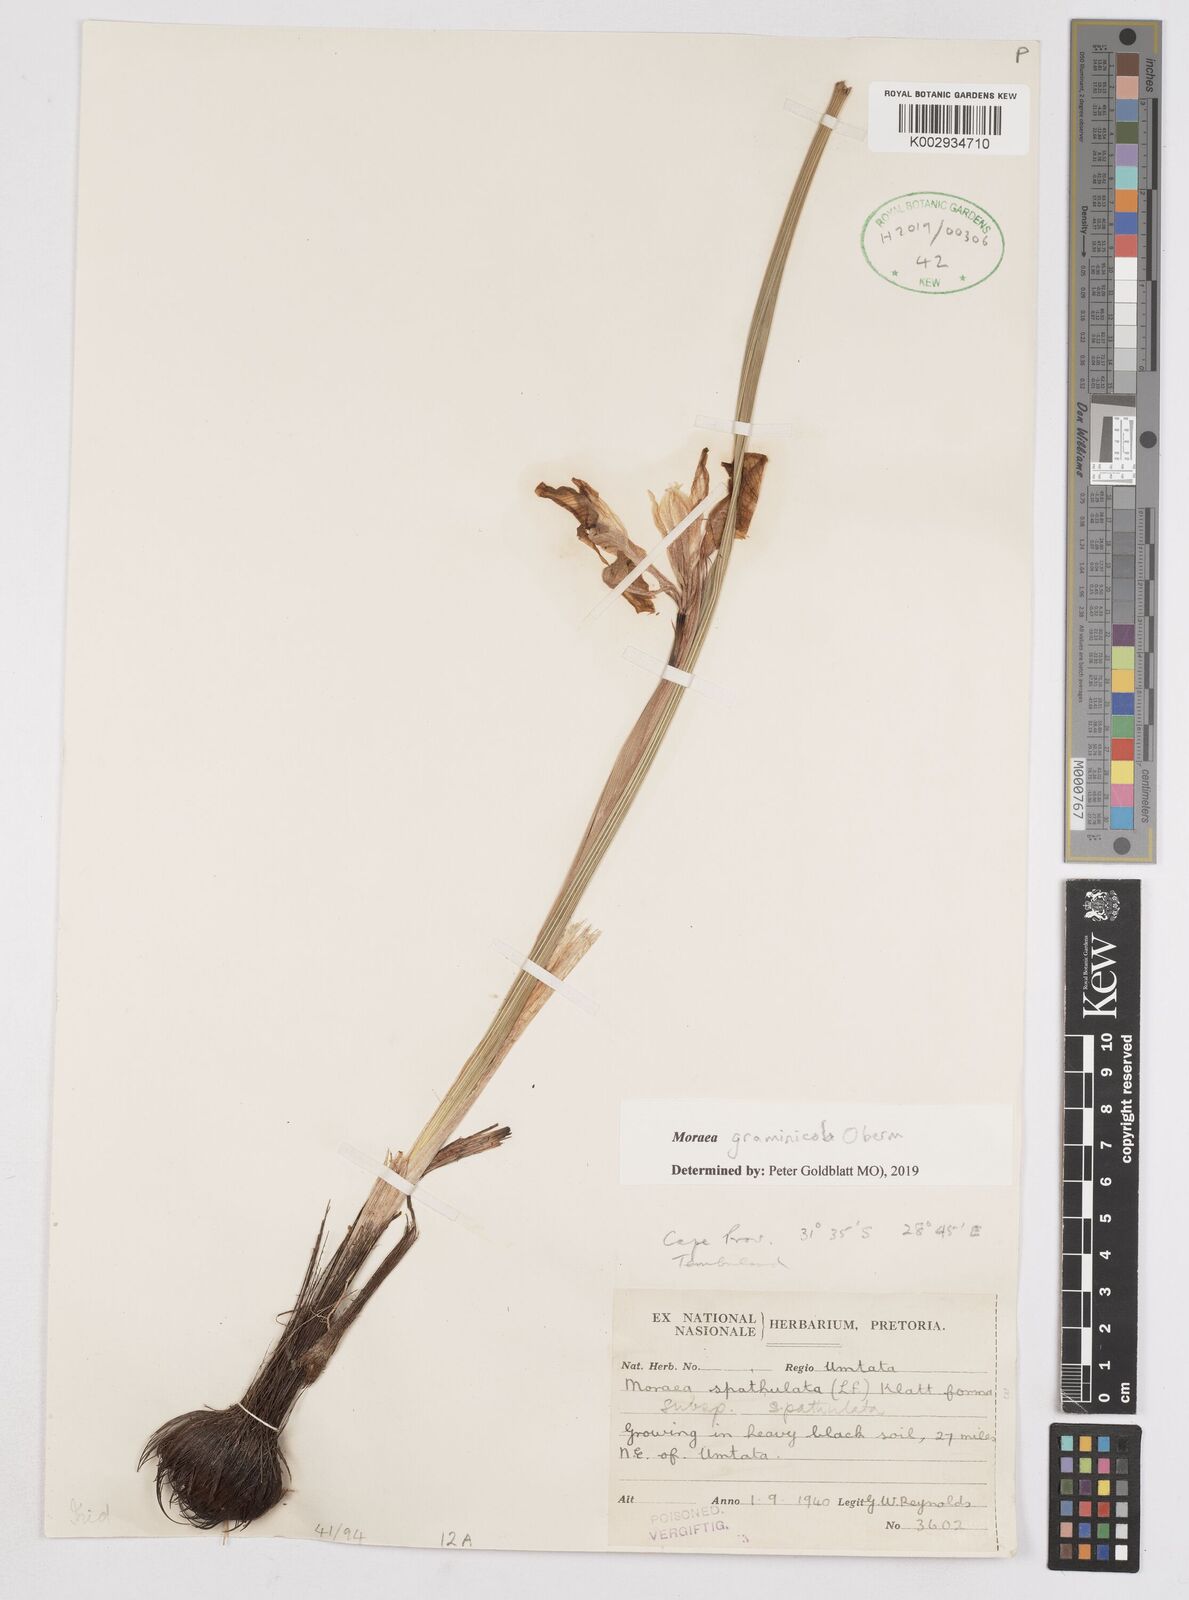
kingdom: Plantae
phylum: Tracheophyta
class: Liliopsida
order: Asparagales
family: Iridaceae
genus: Moraea
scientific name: Moraea graminicola
